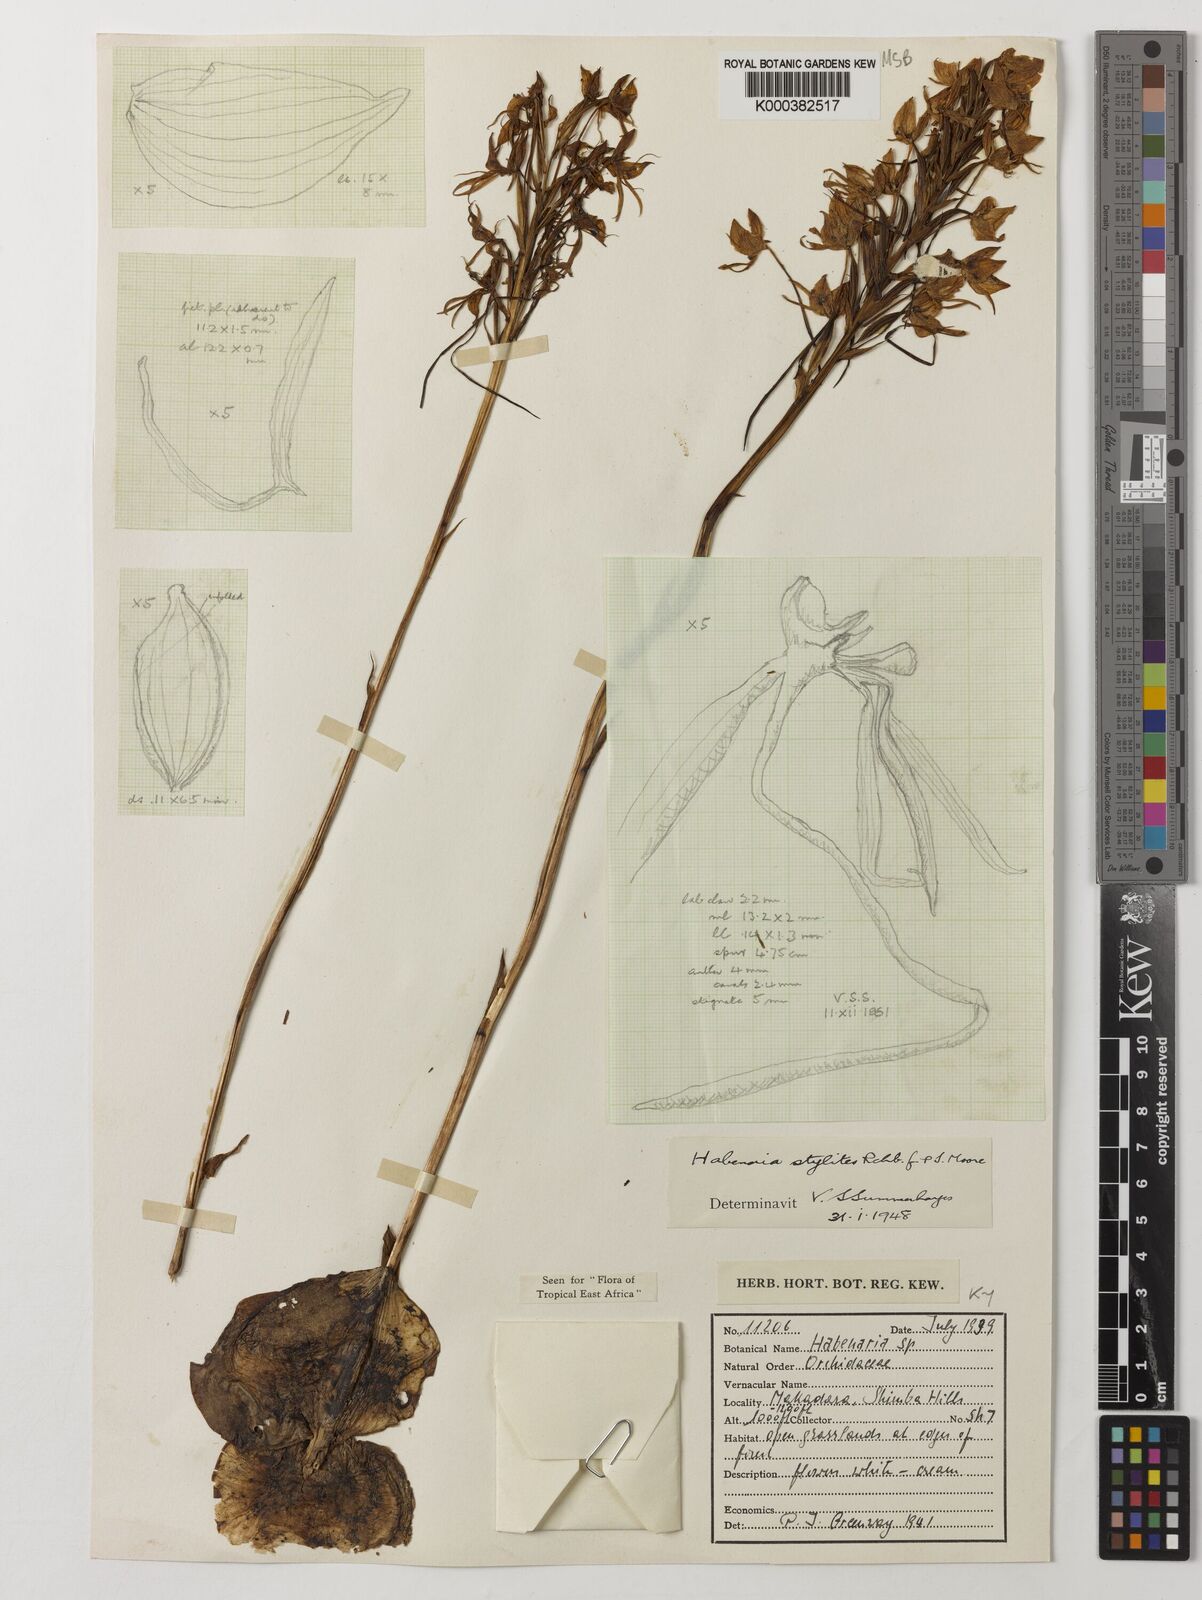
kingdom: Plantae
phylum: Tracheophyta
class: Liliopsida
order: Asparagales
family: Orchidaceae
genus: Habenaria
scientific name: Habenaria stylites
